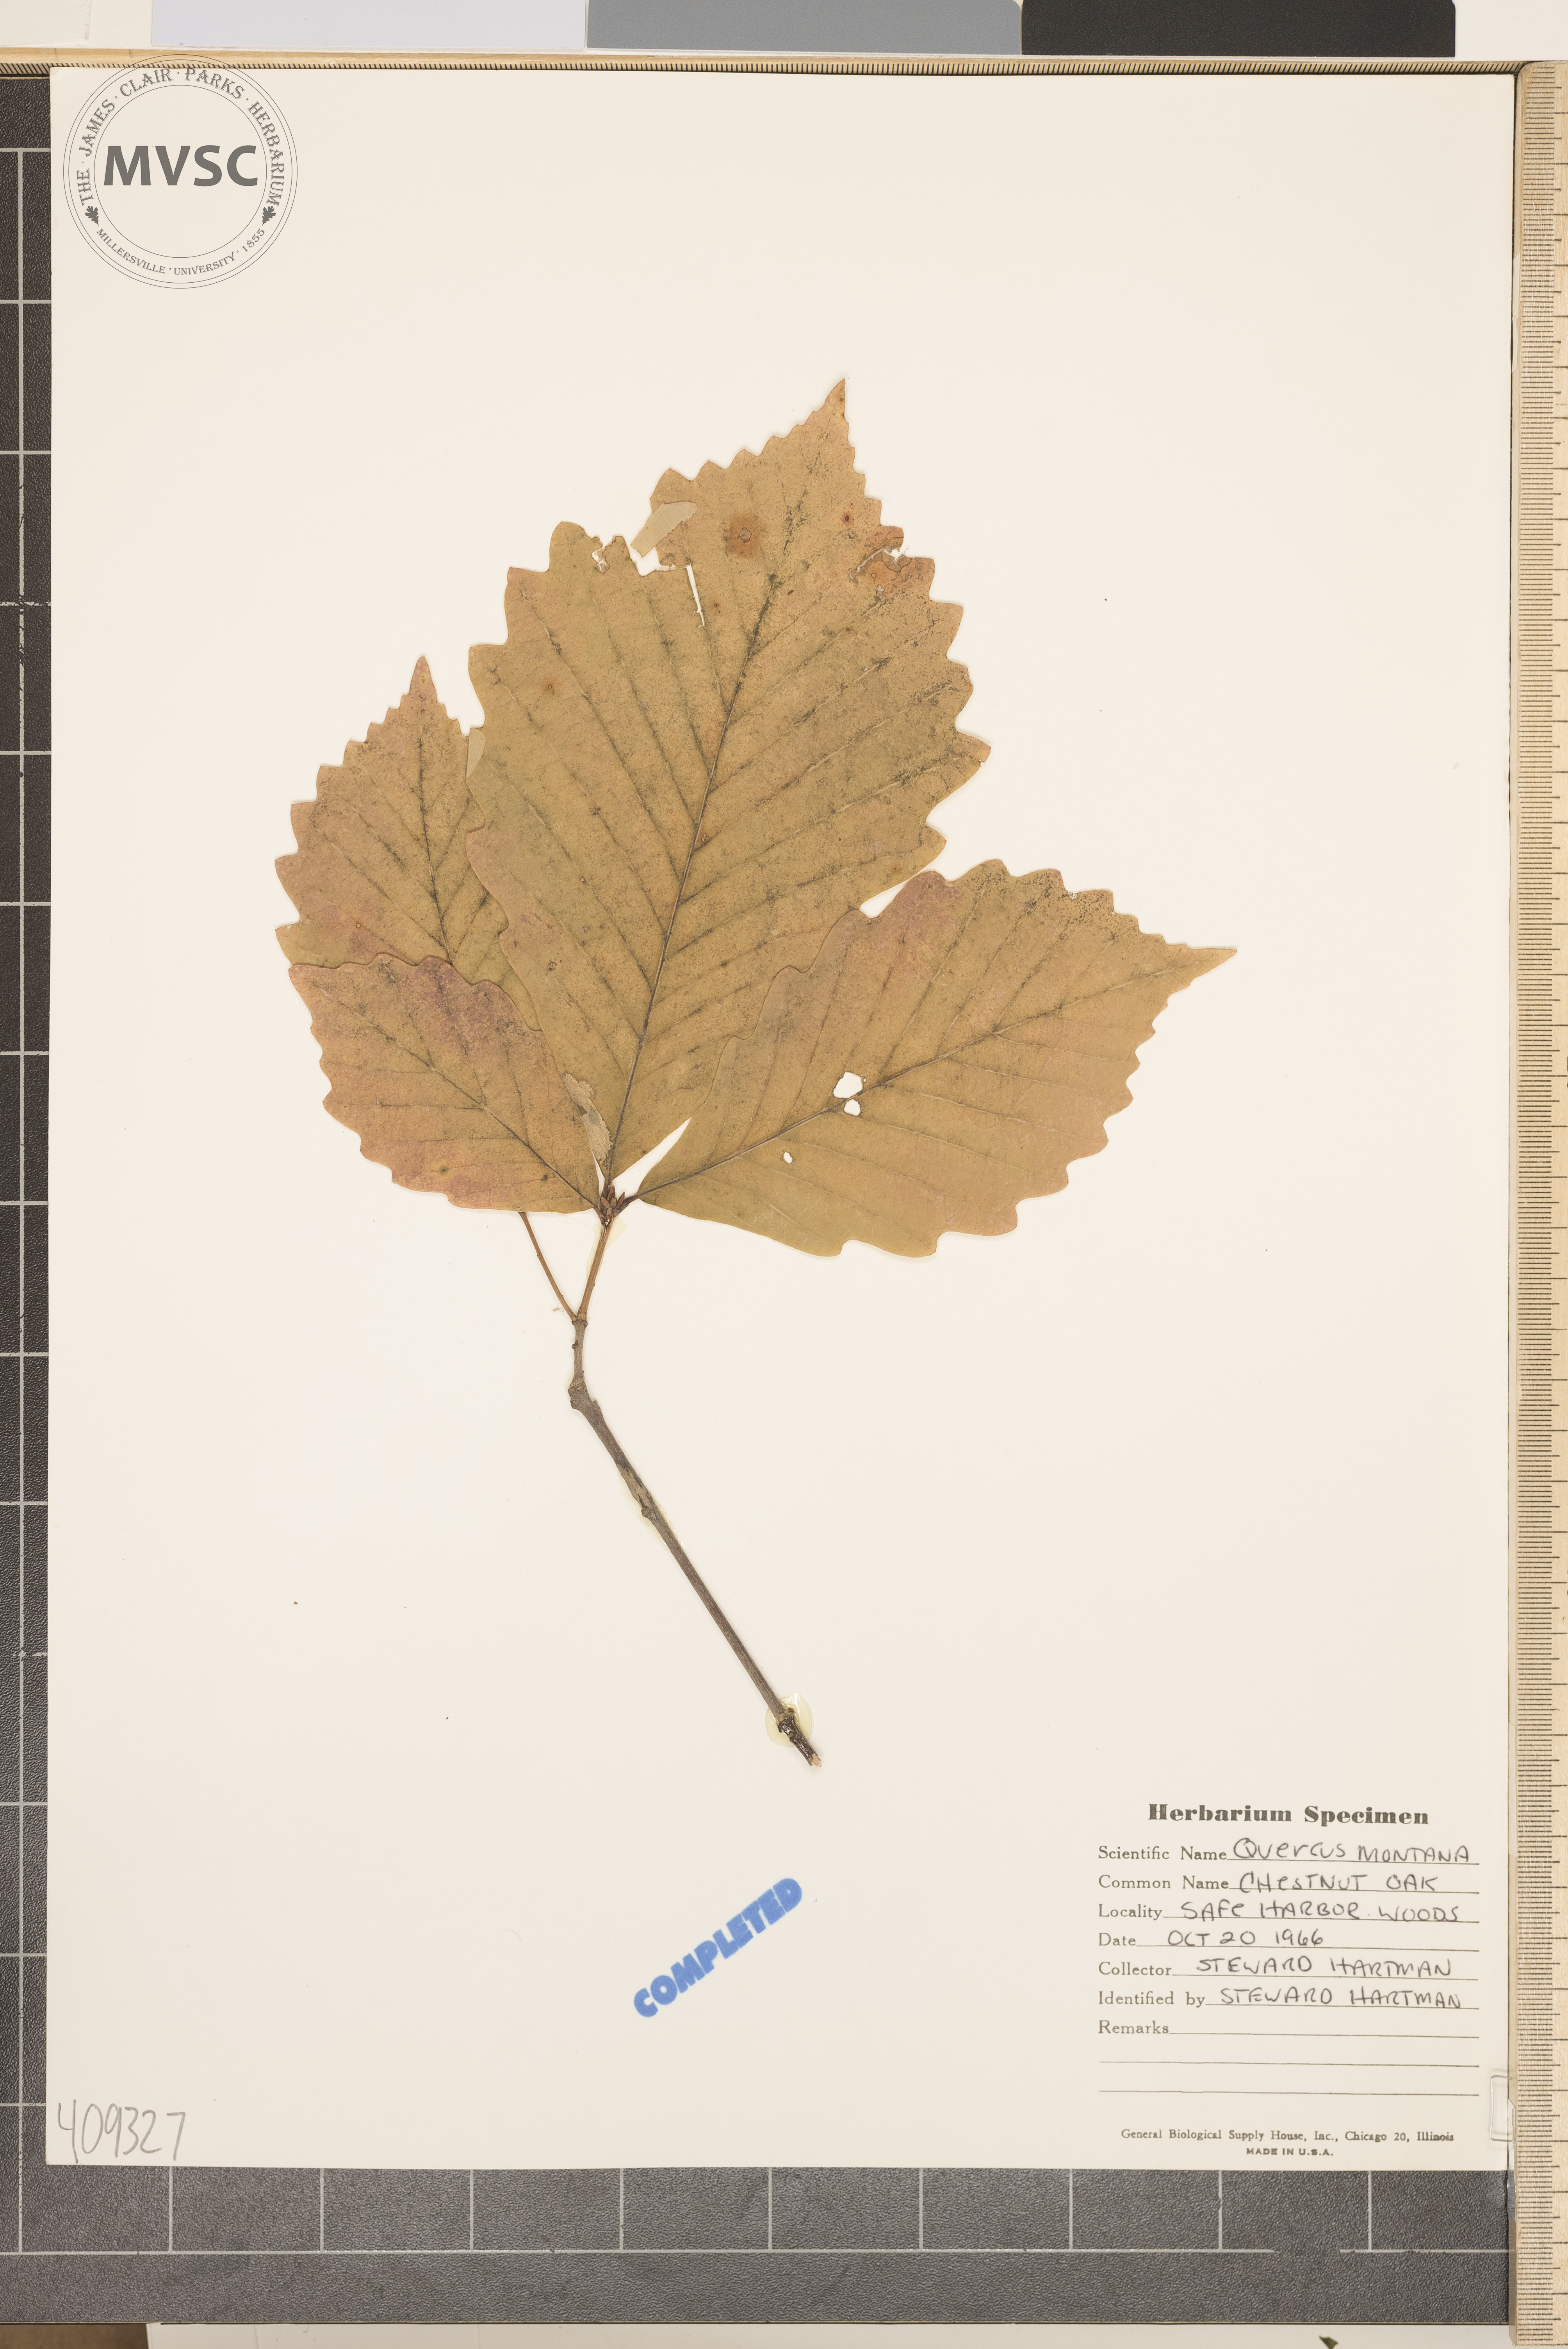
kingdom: Plantae
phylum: Tracheophyta
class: Magnoliopsida
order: Fagales
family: Fagaceae
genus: Quercus
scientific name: Quercus montana
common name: chestnut oak
